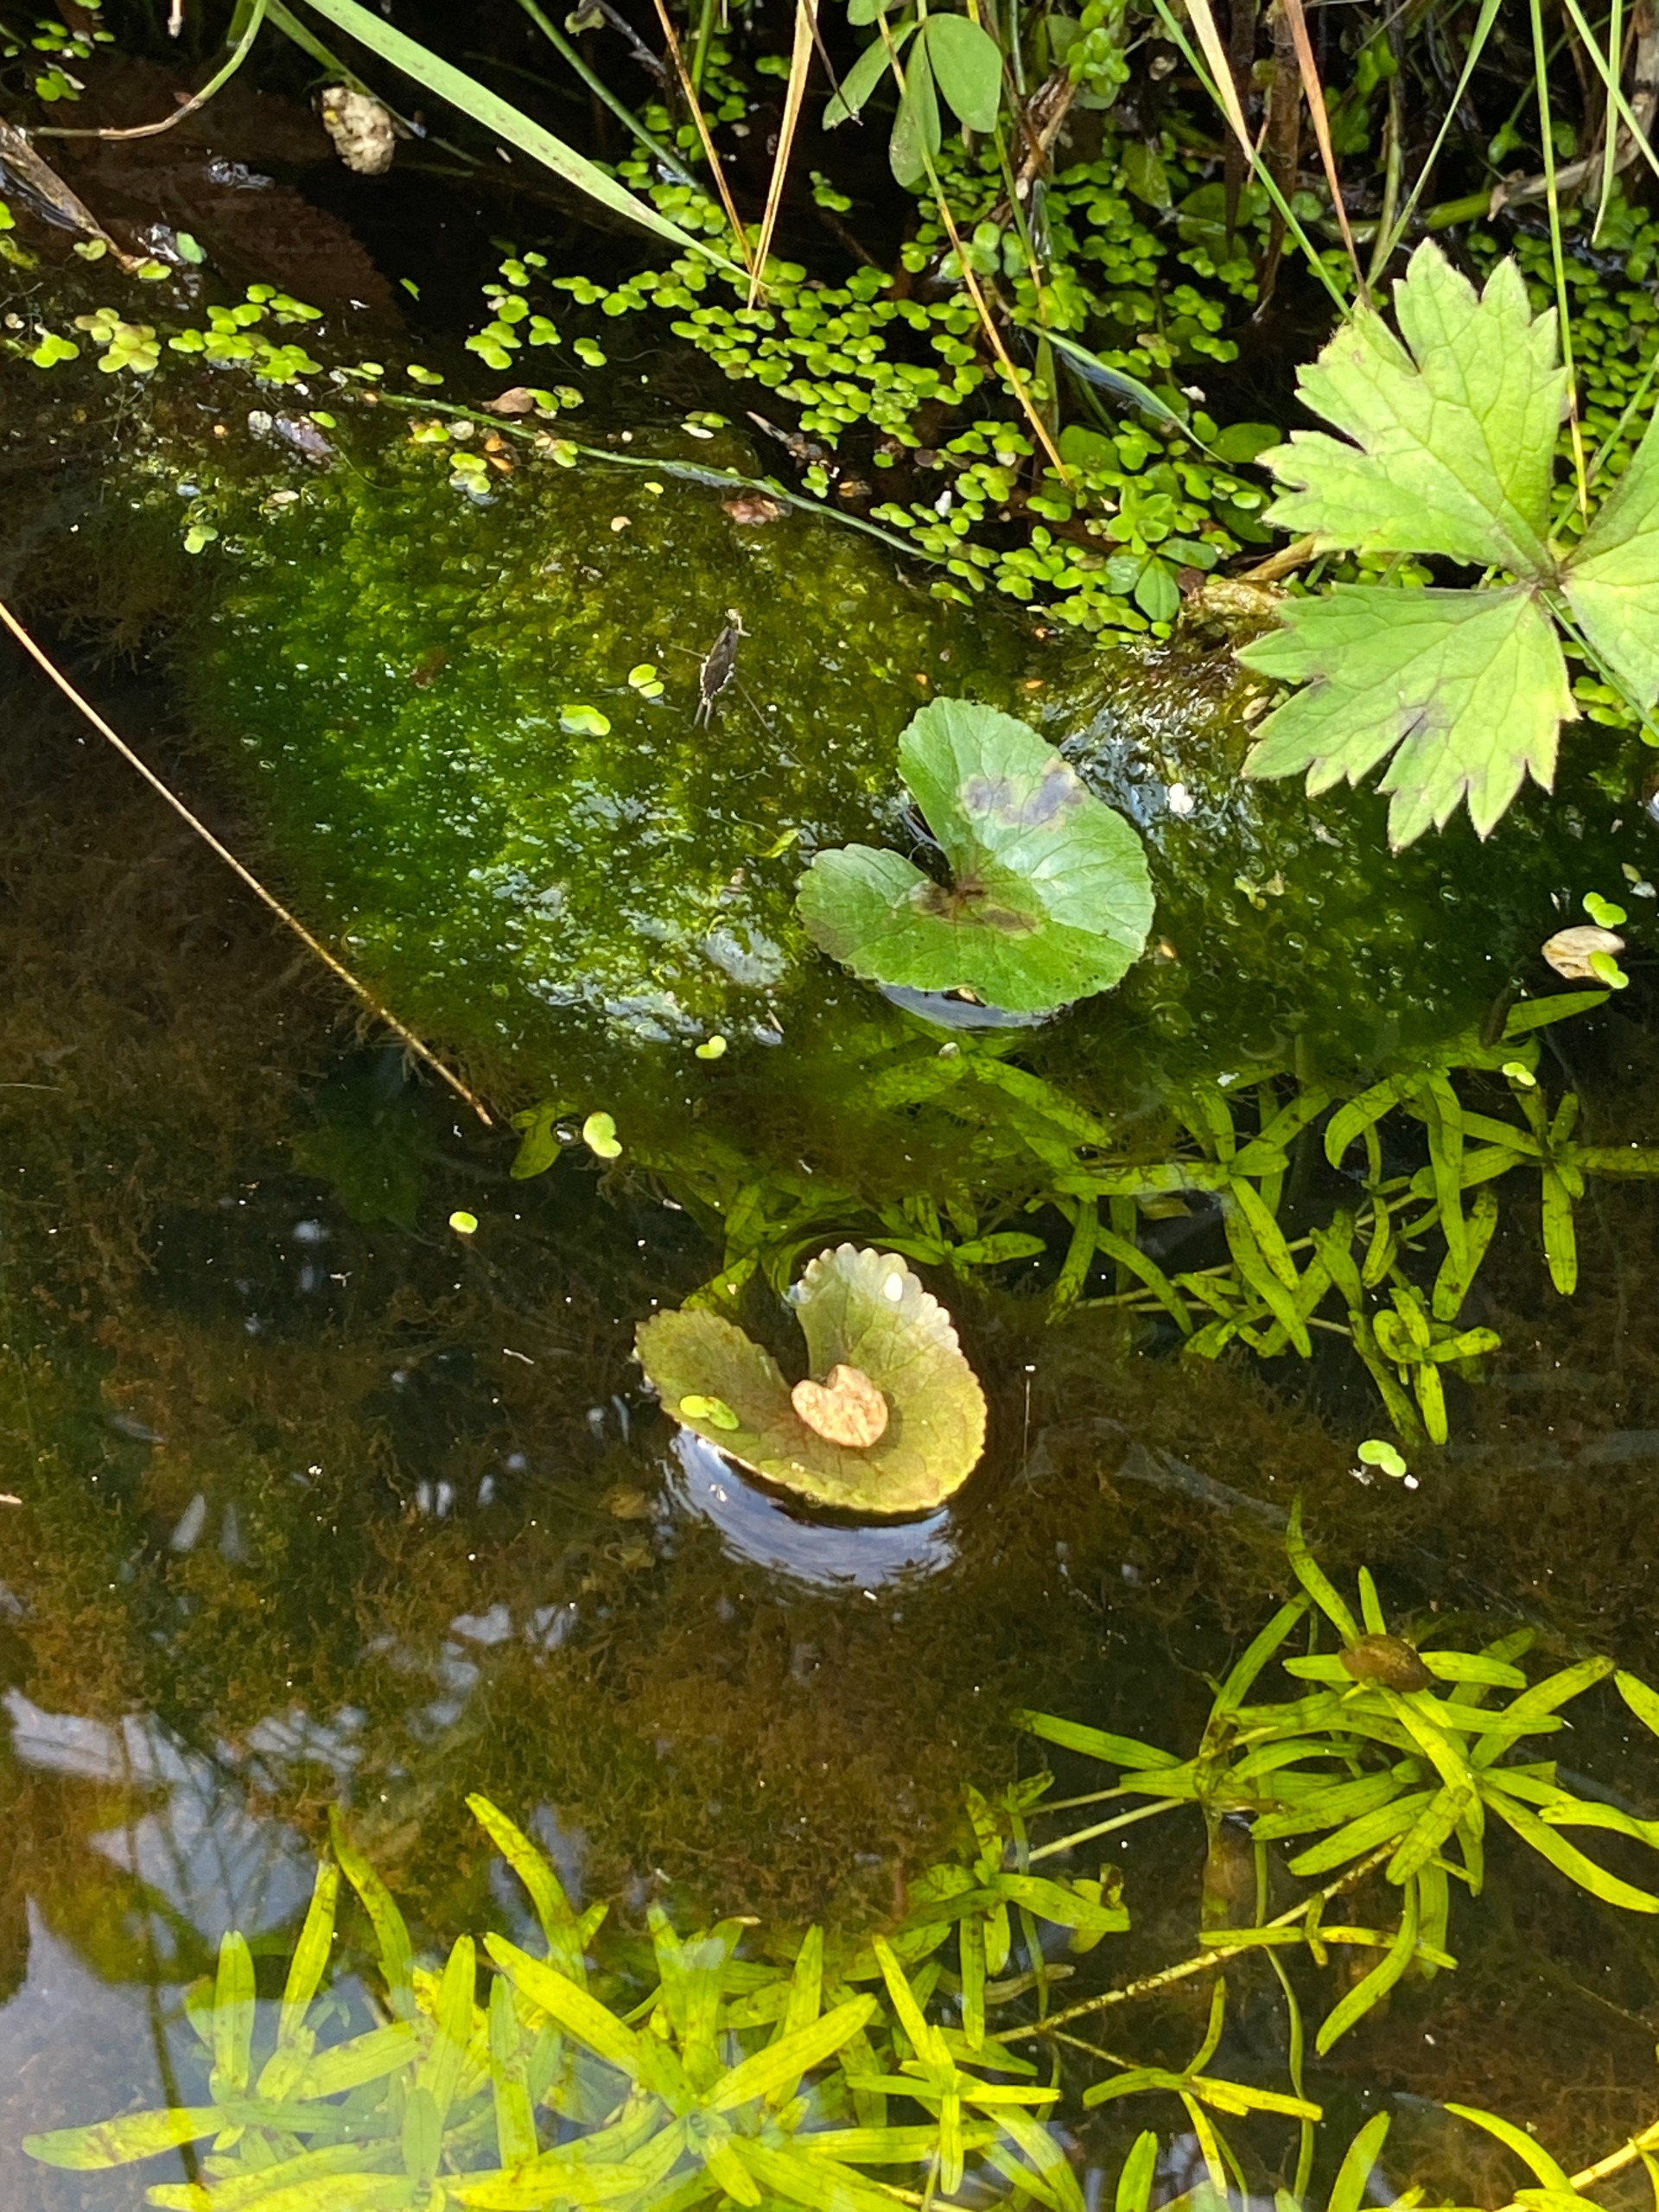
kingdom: Plantae
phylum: Tracheophyta
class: Magnoliopsida
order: Ranunculales
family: Ranunculaceae
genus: Caltha
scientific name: Caltha palustris
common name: Eng-kabbeleje
